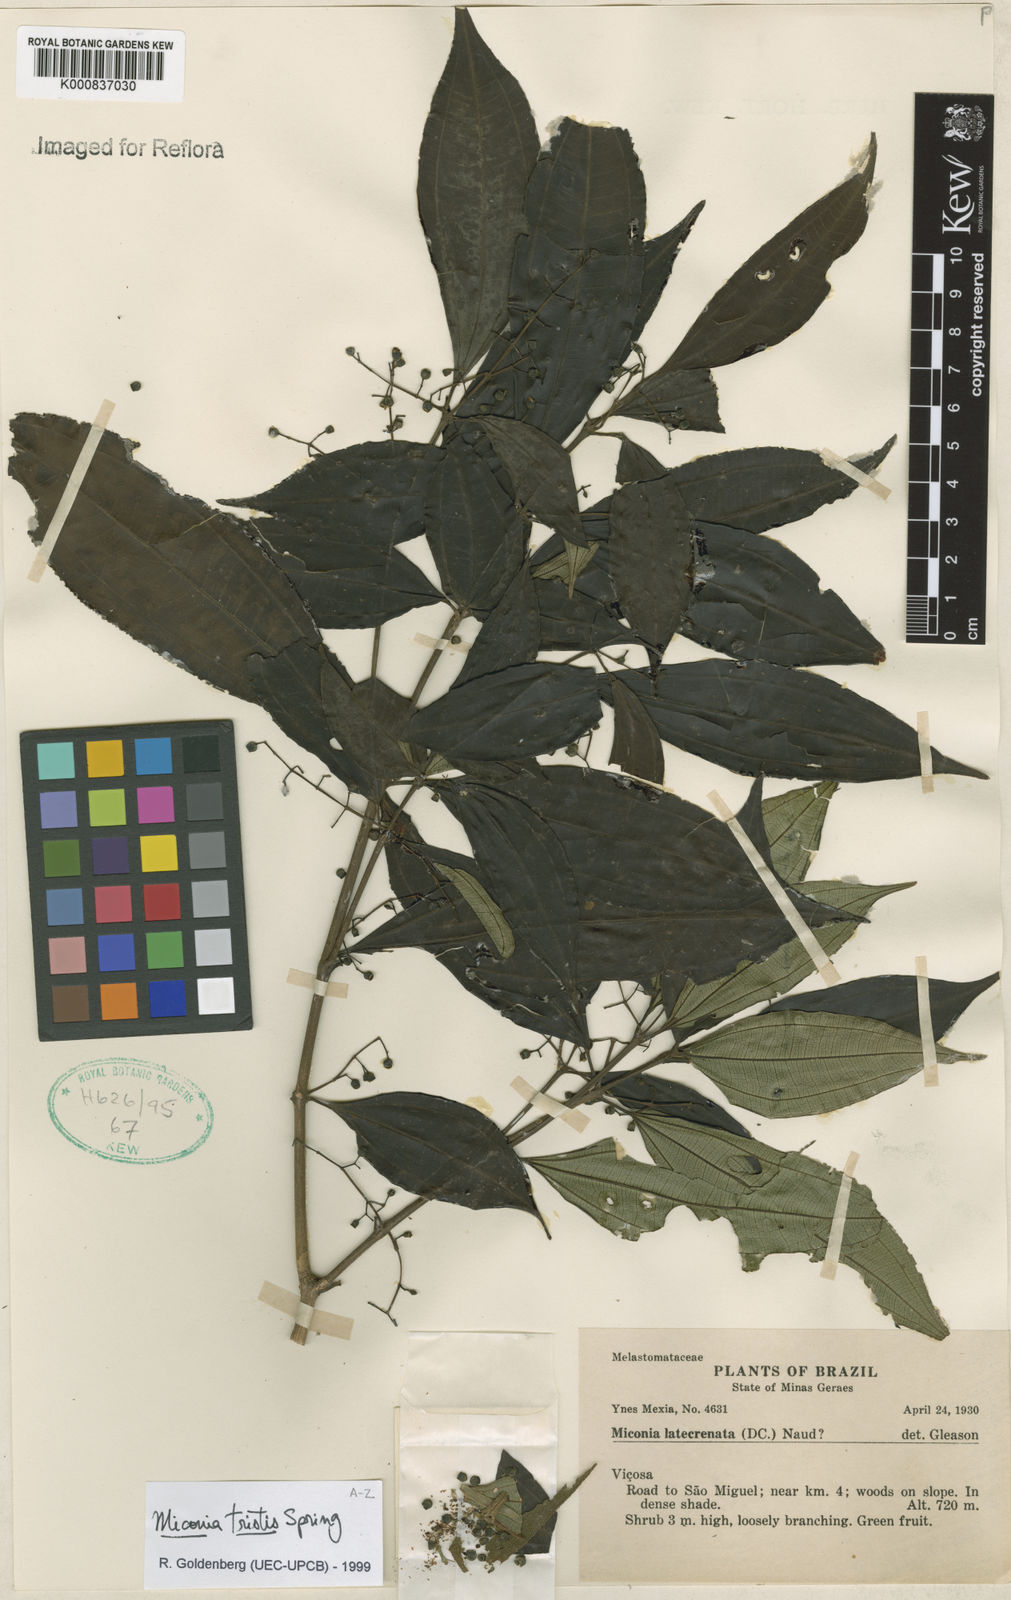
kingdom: Plantae
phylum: Tracheophyta
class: Magnoliopsida
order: Myrtales
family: Melastomataceae
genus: Miconia
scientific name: Miconia
